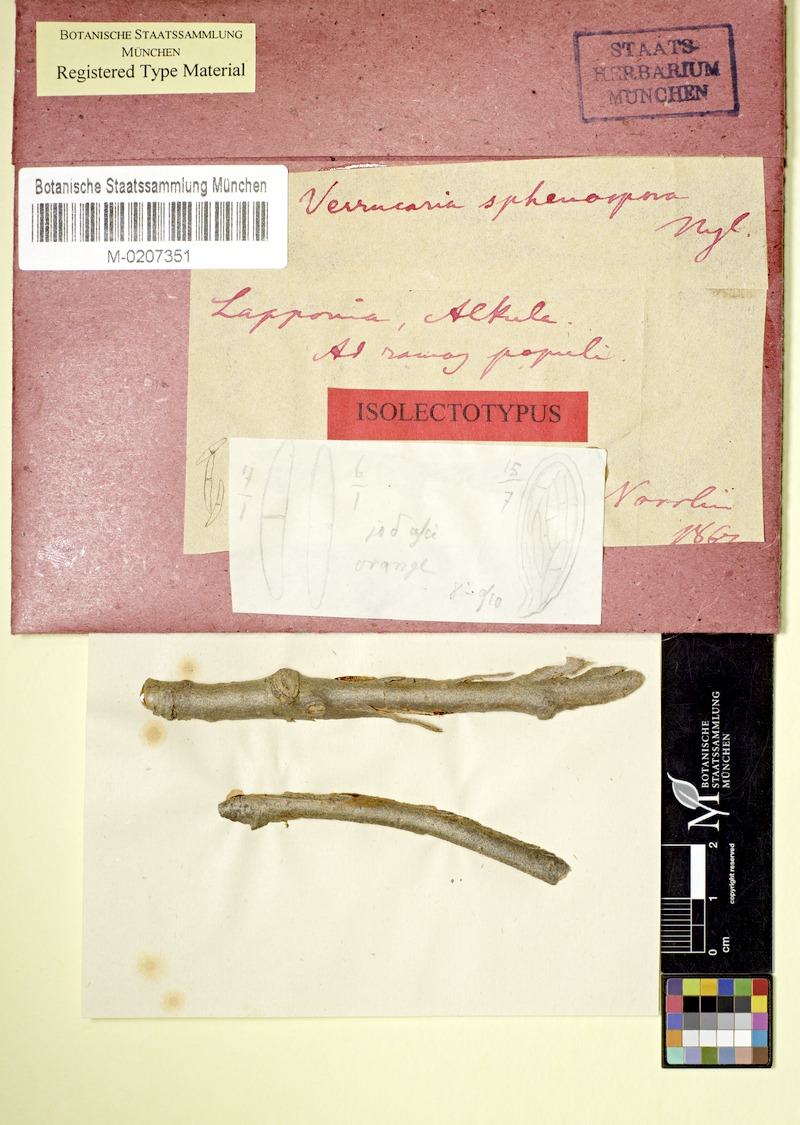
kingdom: Fungi
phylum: Ascomycota
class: Dothideomycetes
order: Pleosporales
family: Naetrocymbaceae
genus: Leptorhaphis
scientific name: Leptorhaphis tremulae
